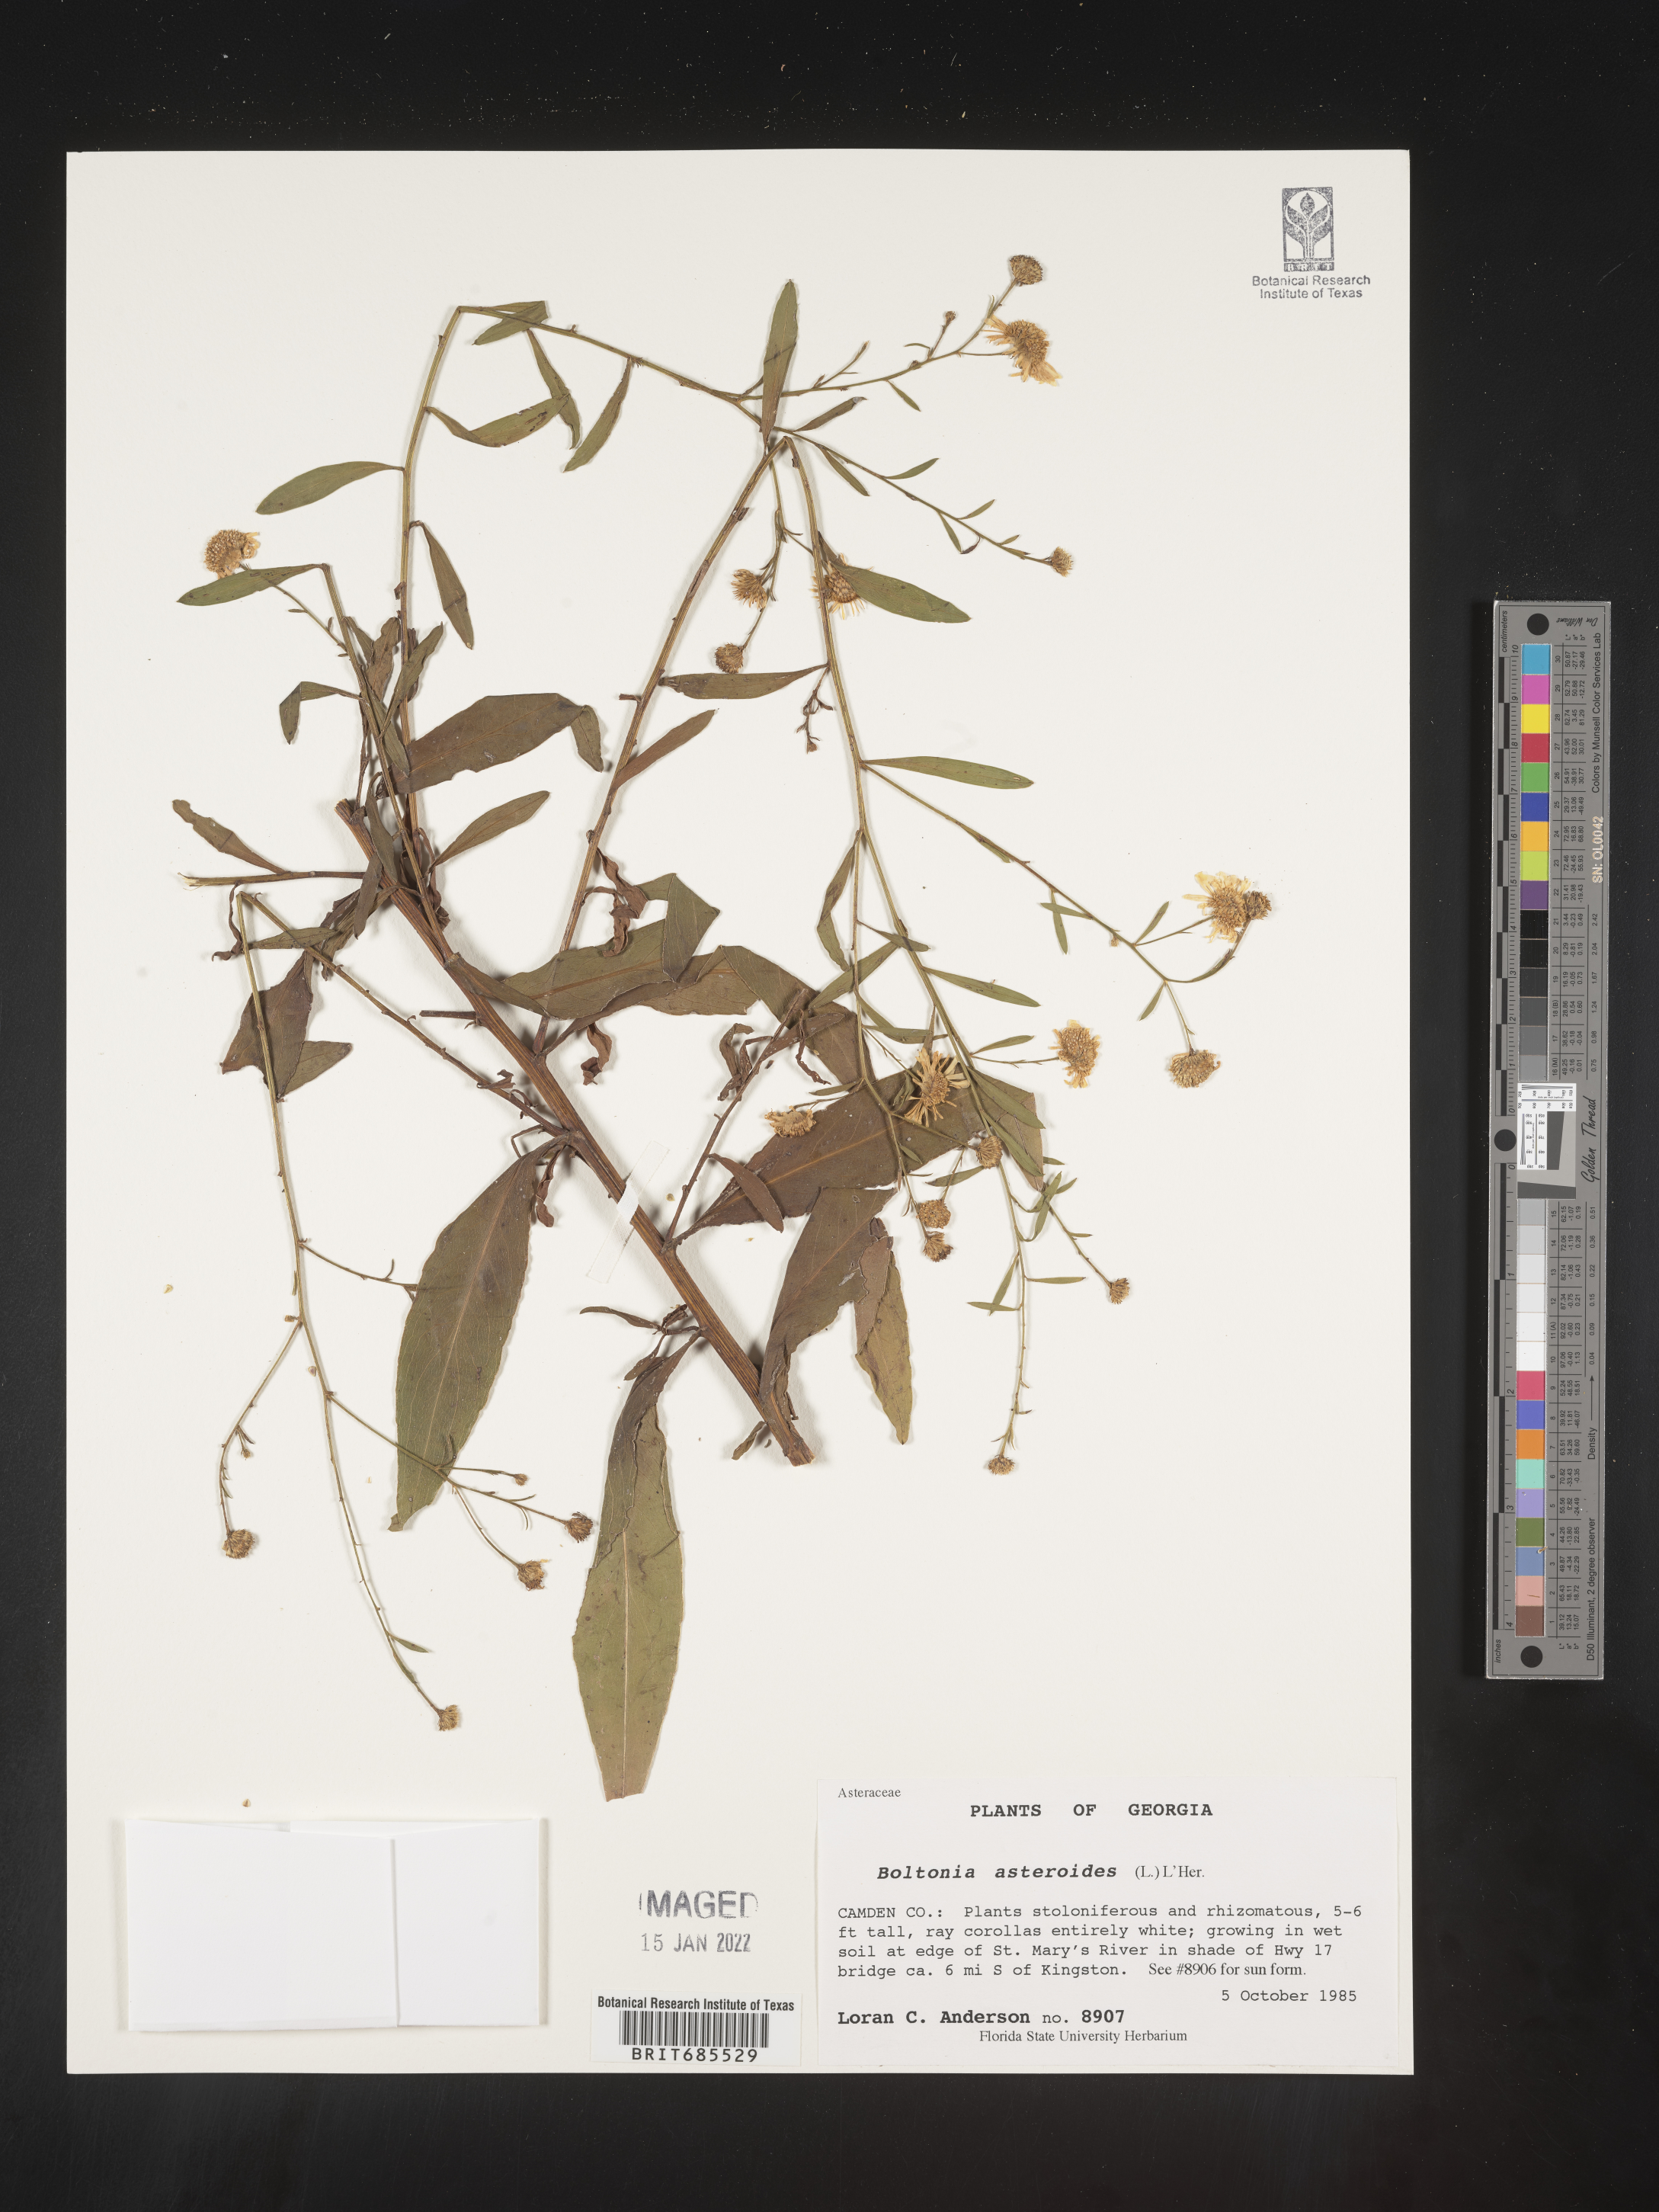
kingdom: Plantae
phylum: Tracheophyta
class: Magnoliopsida
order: Asterales
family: Asteraceae
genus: Boltonia
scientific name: Boltonia asteroides
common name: False chamomile
